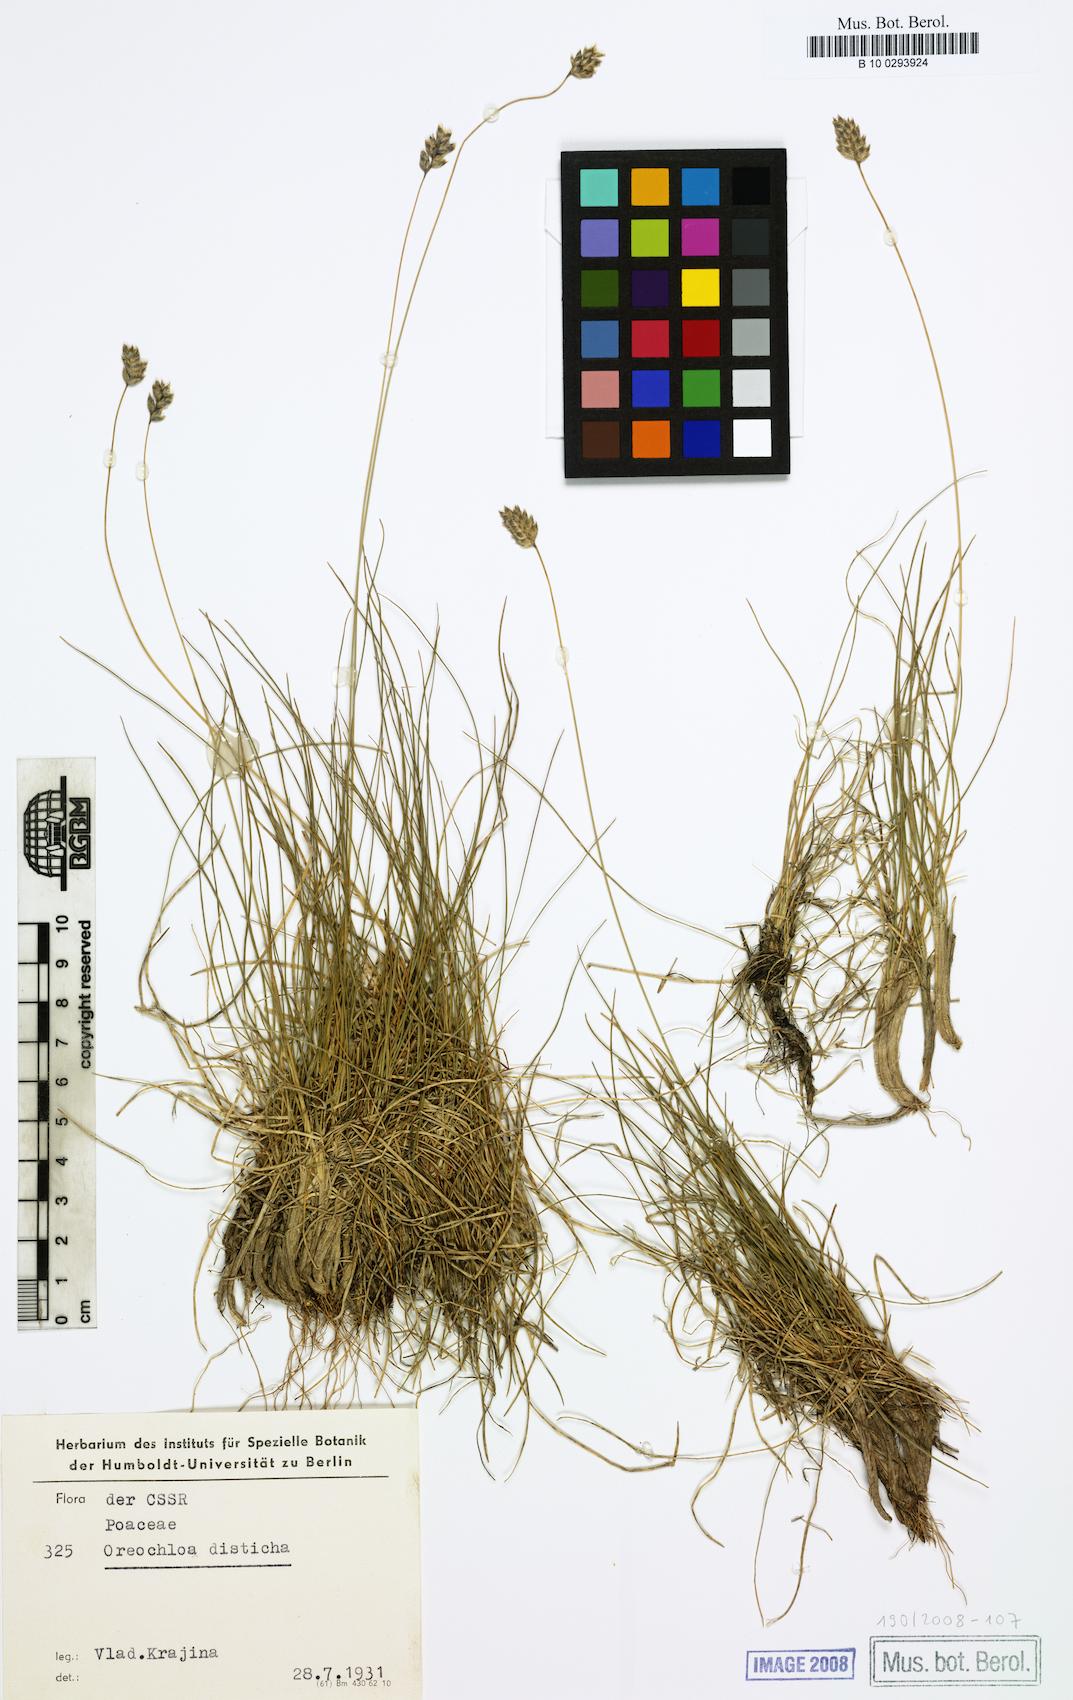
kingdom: Plantae
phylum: Tracheophyta
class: Liliopsida
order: Poales
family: Poaceae
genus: Oreochloa
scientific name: Oreochloa disticha
